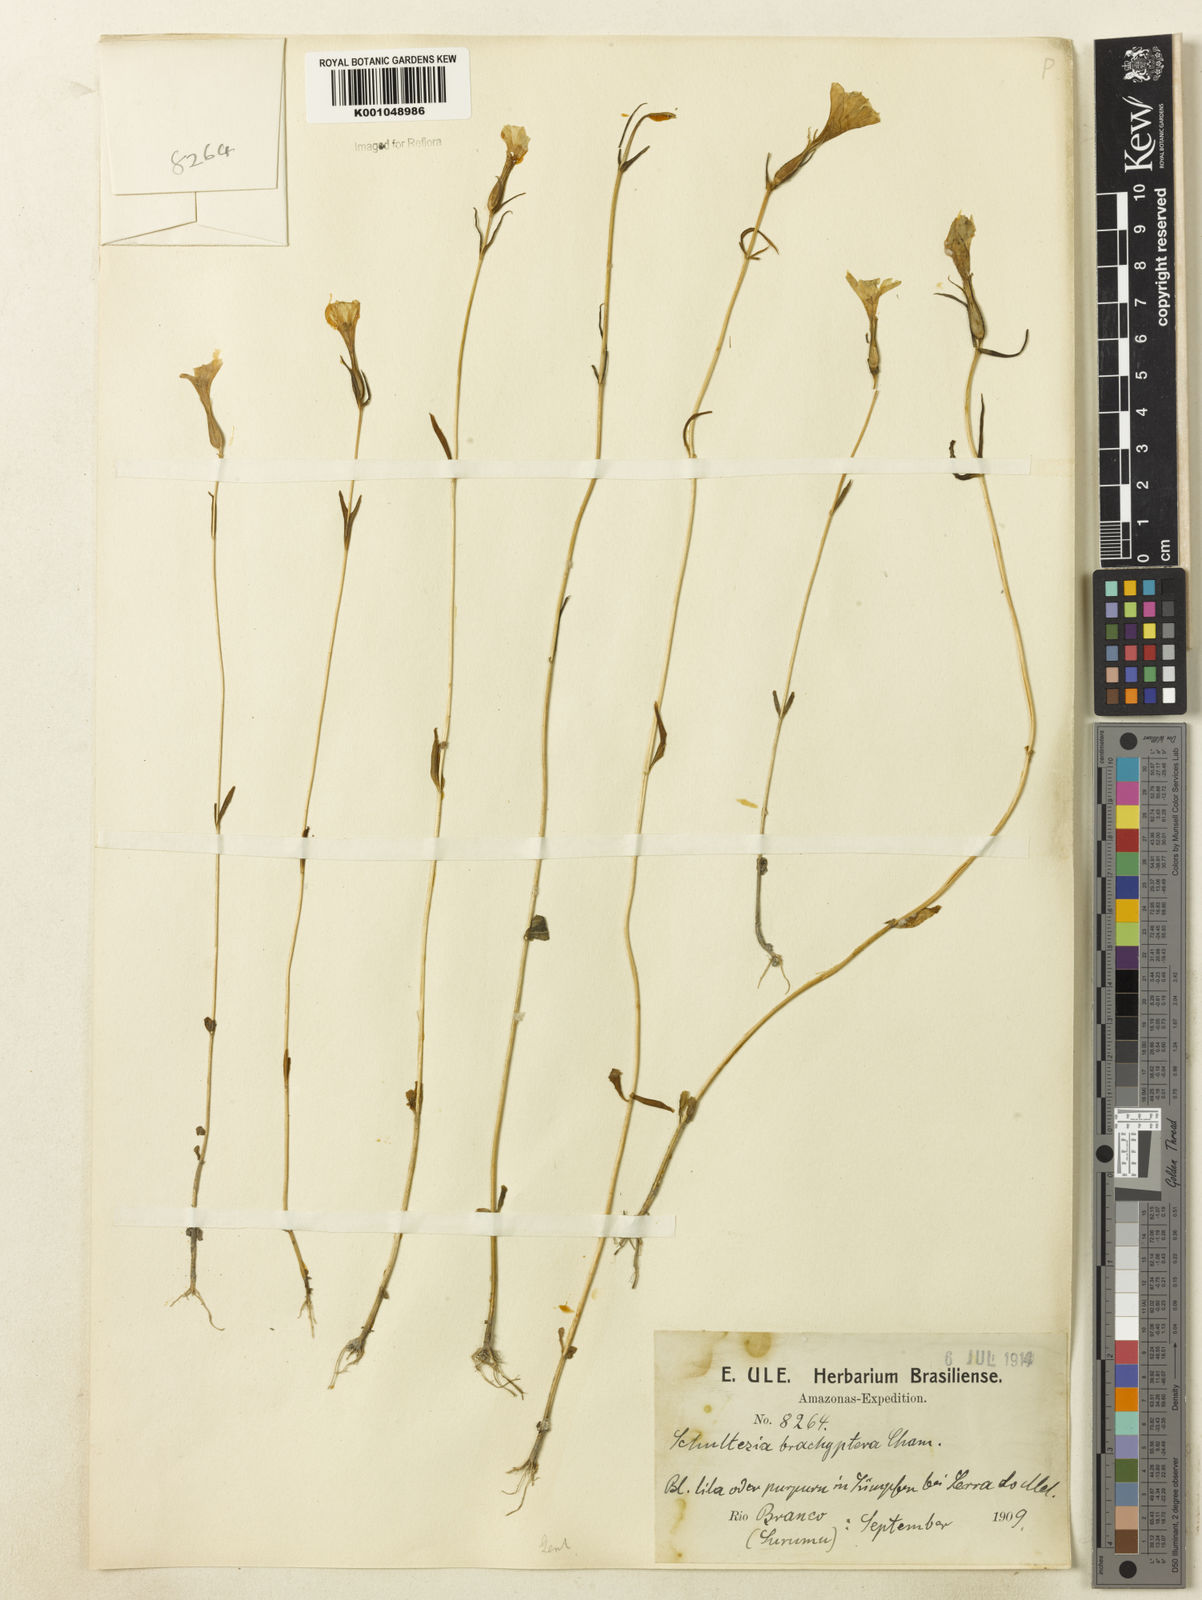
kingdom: Plantae
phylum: Tracheophyta
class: Magnoliopsida
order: Gentianales
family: Gentianaceae
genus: Schultesia
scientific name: Schultesia aptera
